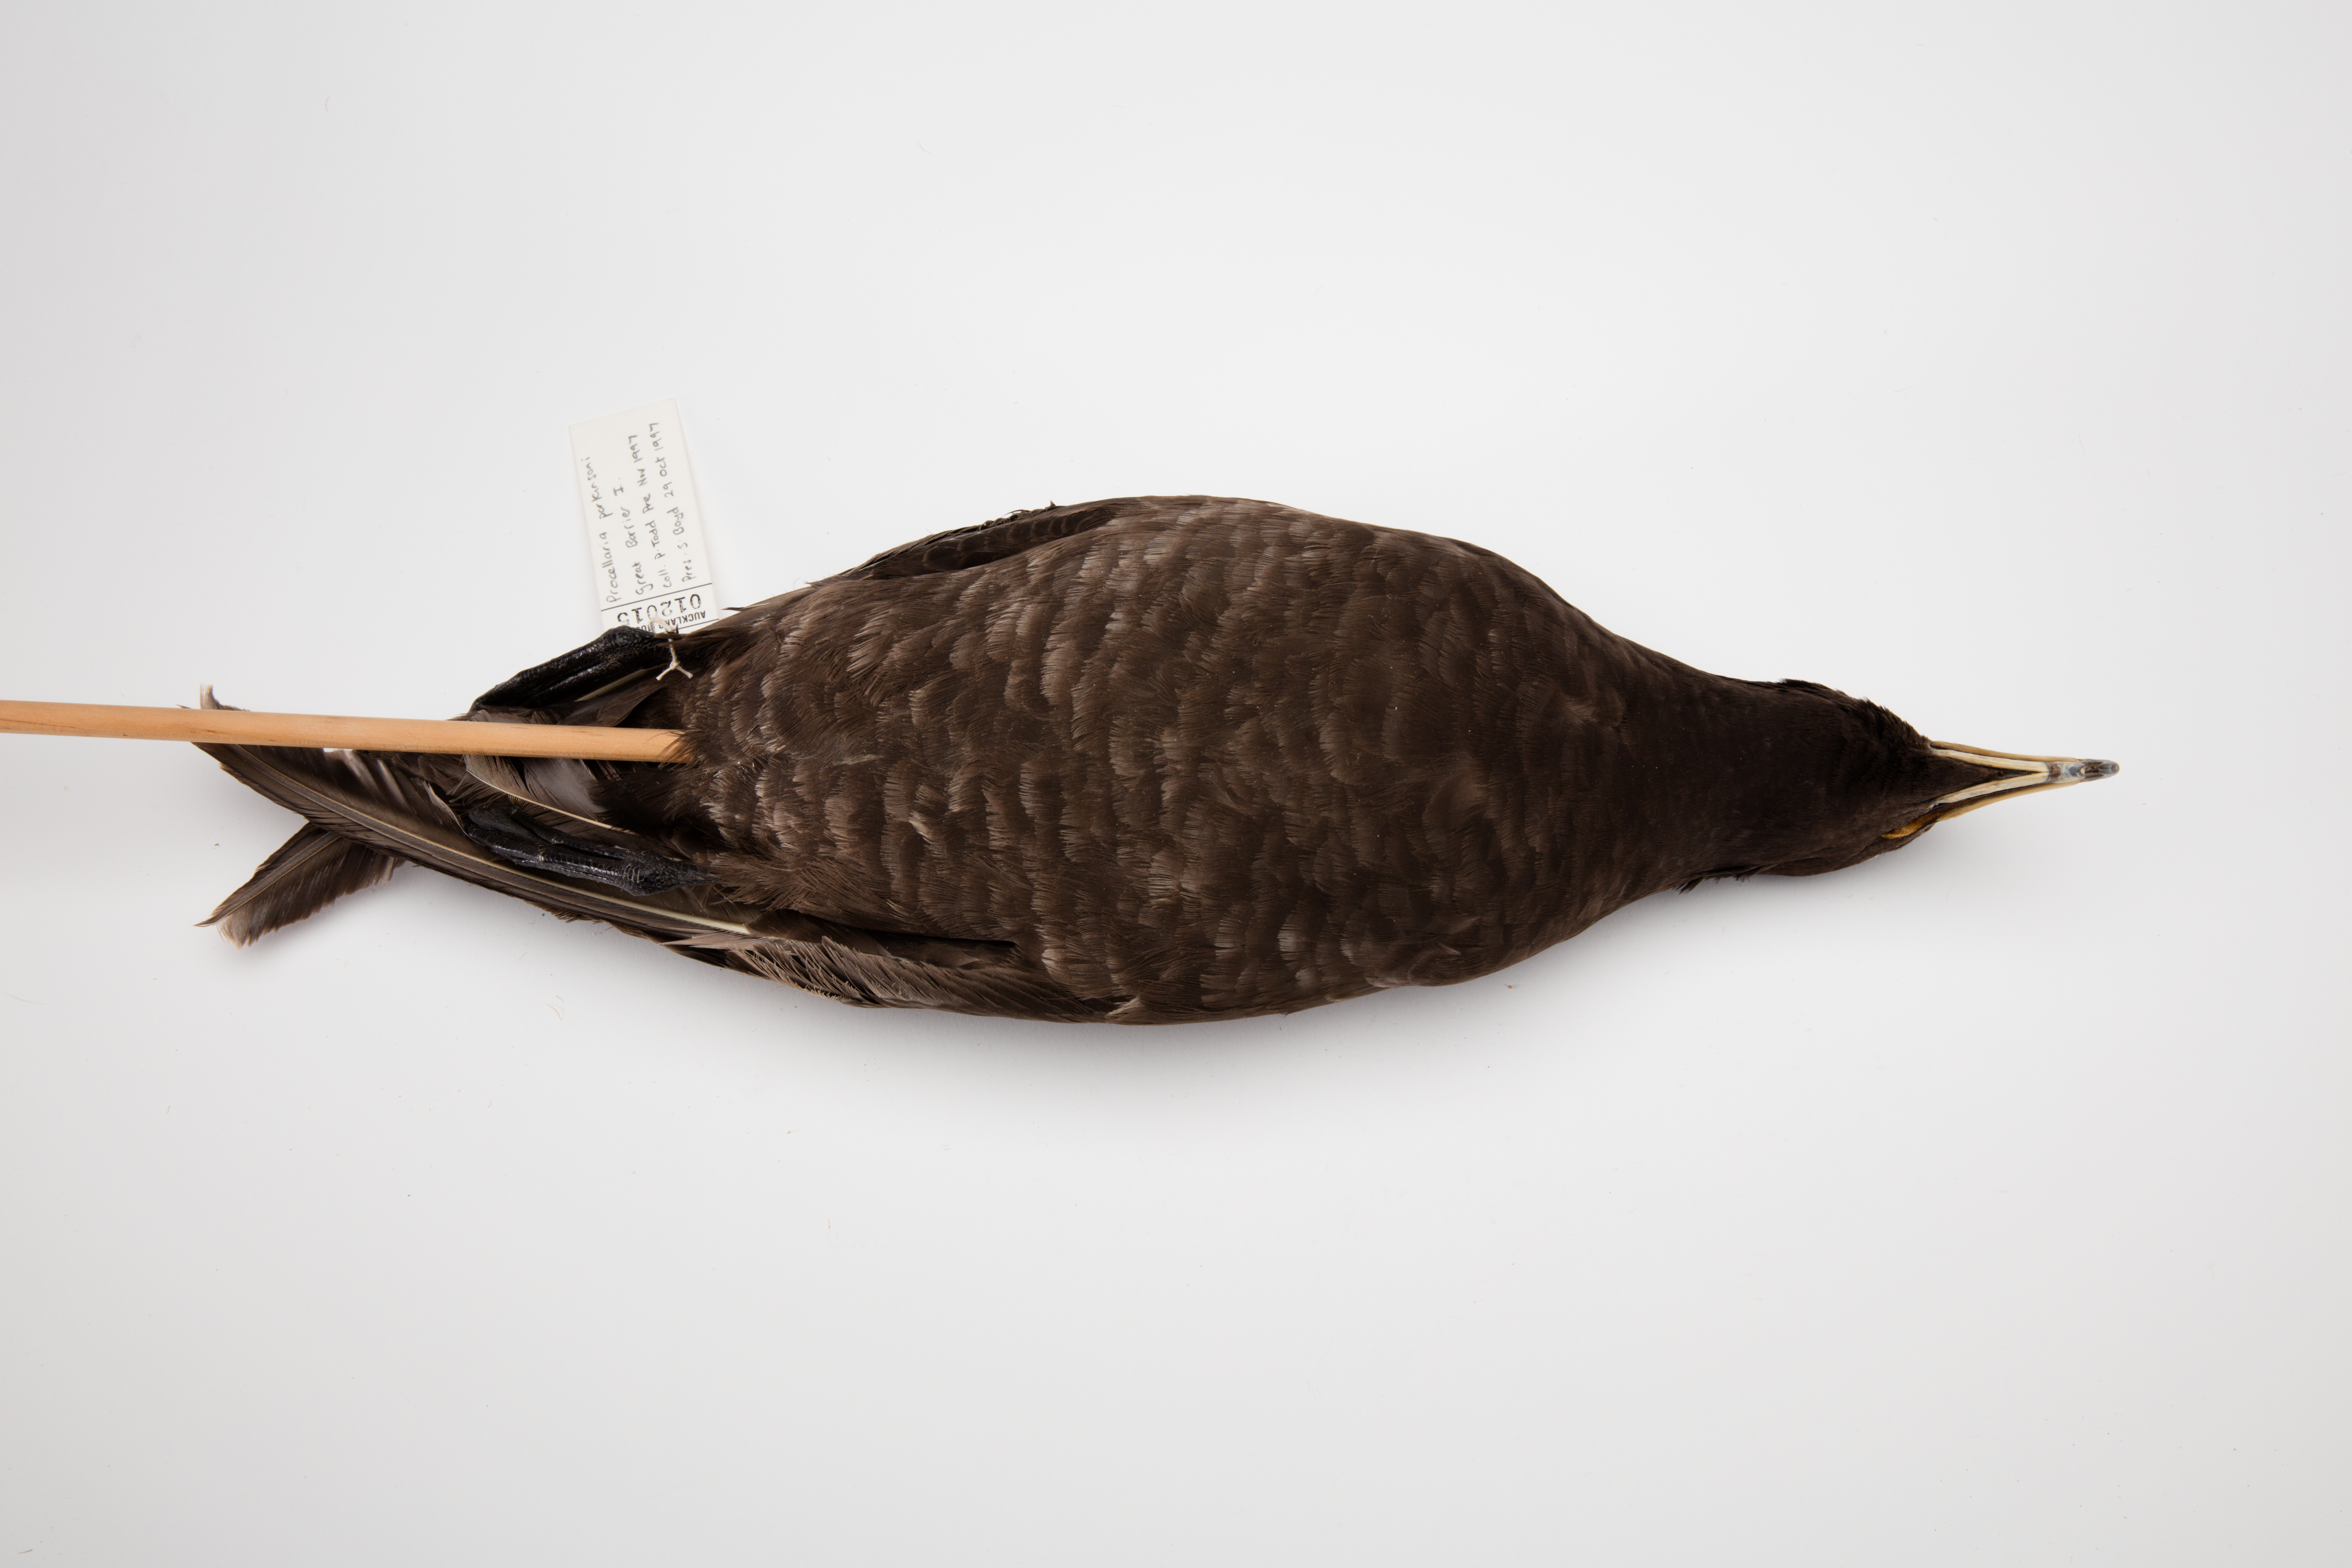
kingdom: Animalia
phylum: Chordata
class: Aves
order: Procellariiformes
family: Procellariidae
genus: Procellaria
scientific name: Procellaria parkinsoni
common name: Black petrel
